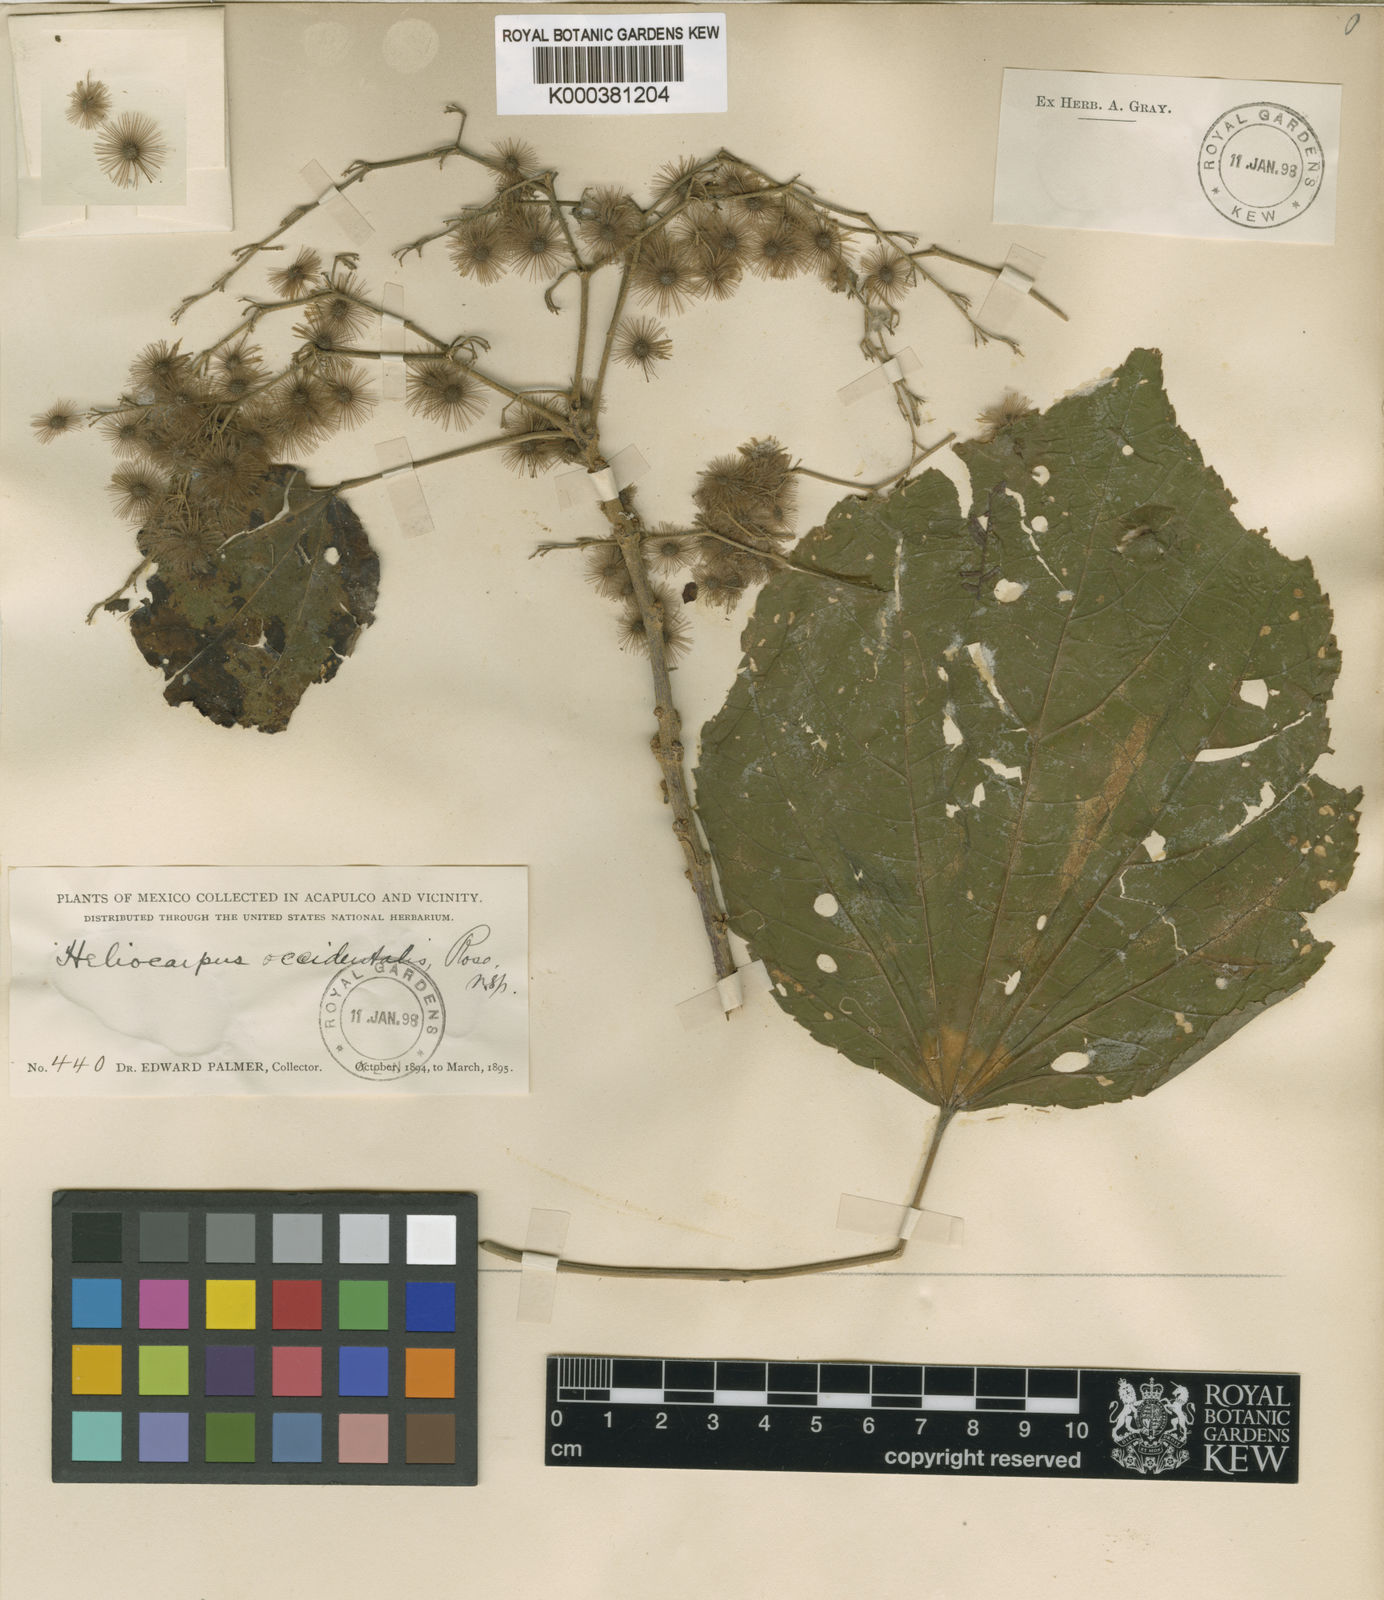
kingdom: Plantae
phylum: Tracheophyta
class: Magnoliopsida
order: Malvales
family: Malvaceae
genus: Heliocarpus
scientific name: Heliocarpus occidentalis
